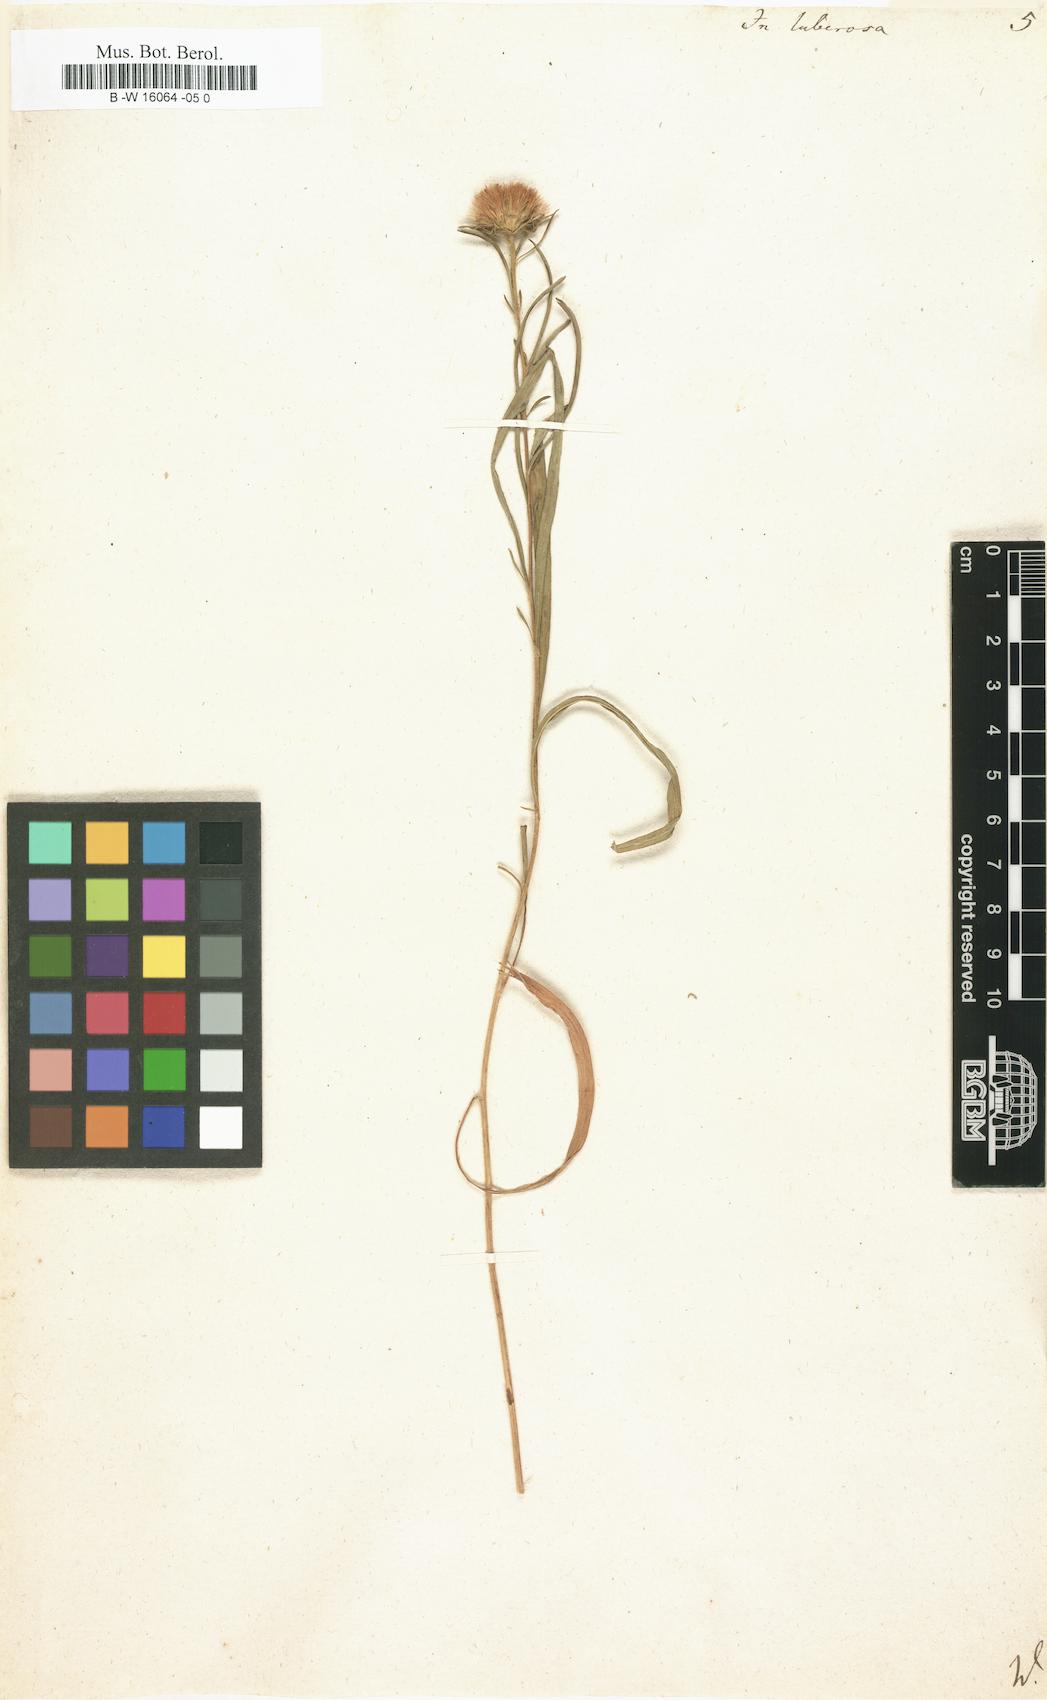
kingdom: Plantae
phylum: Tracheophyta
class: Magnoliopsida
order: Asterales
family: Asteraceae
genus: Jasonia
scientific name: Jasonia tuberosa
